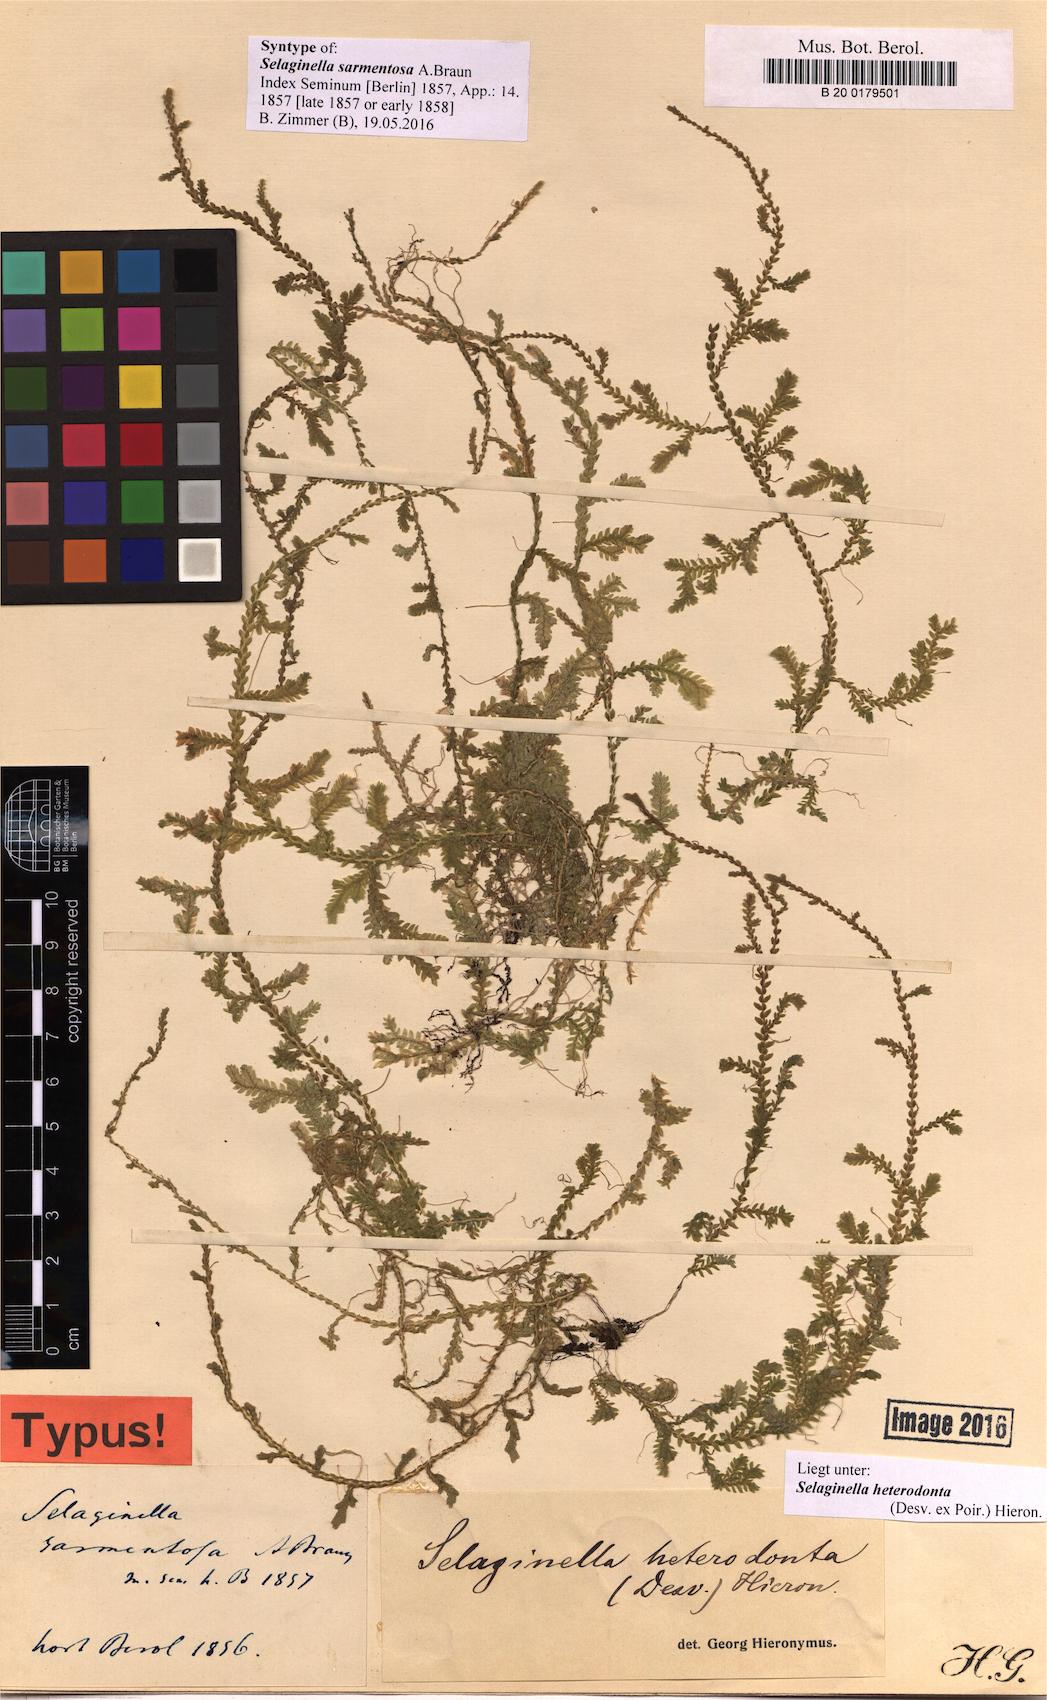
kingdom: Plantae
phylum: Tracheophyta
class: Lycopodiopsida
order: Selaginellales
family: Selaginellaceae
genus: Selaginella
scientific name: Selaginella heterodonta
